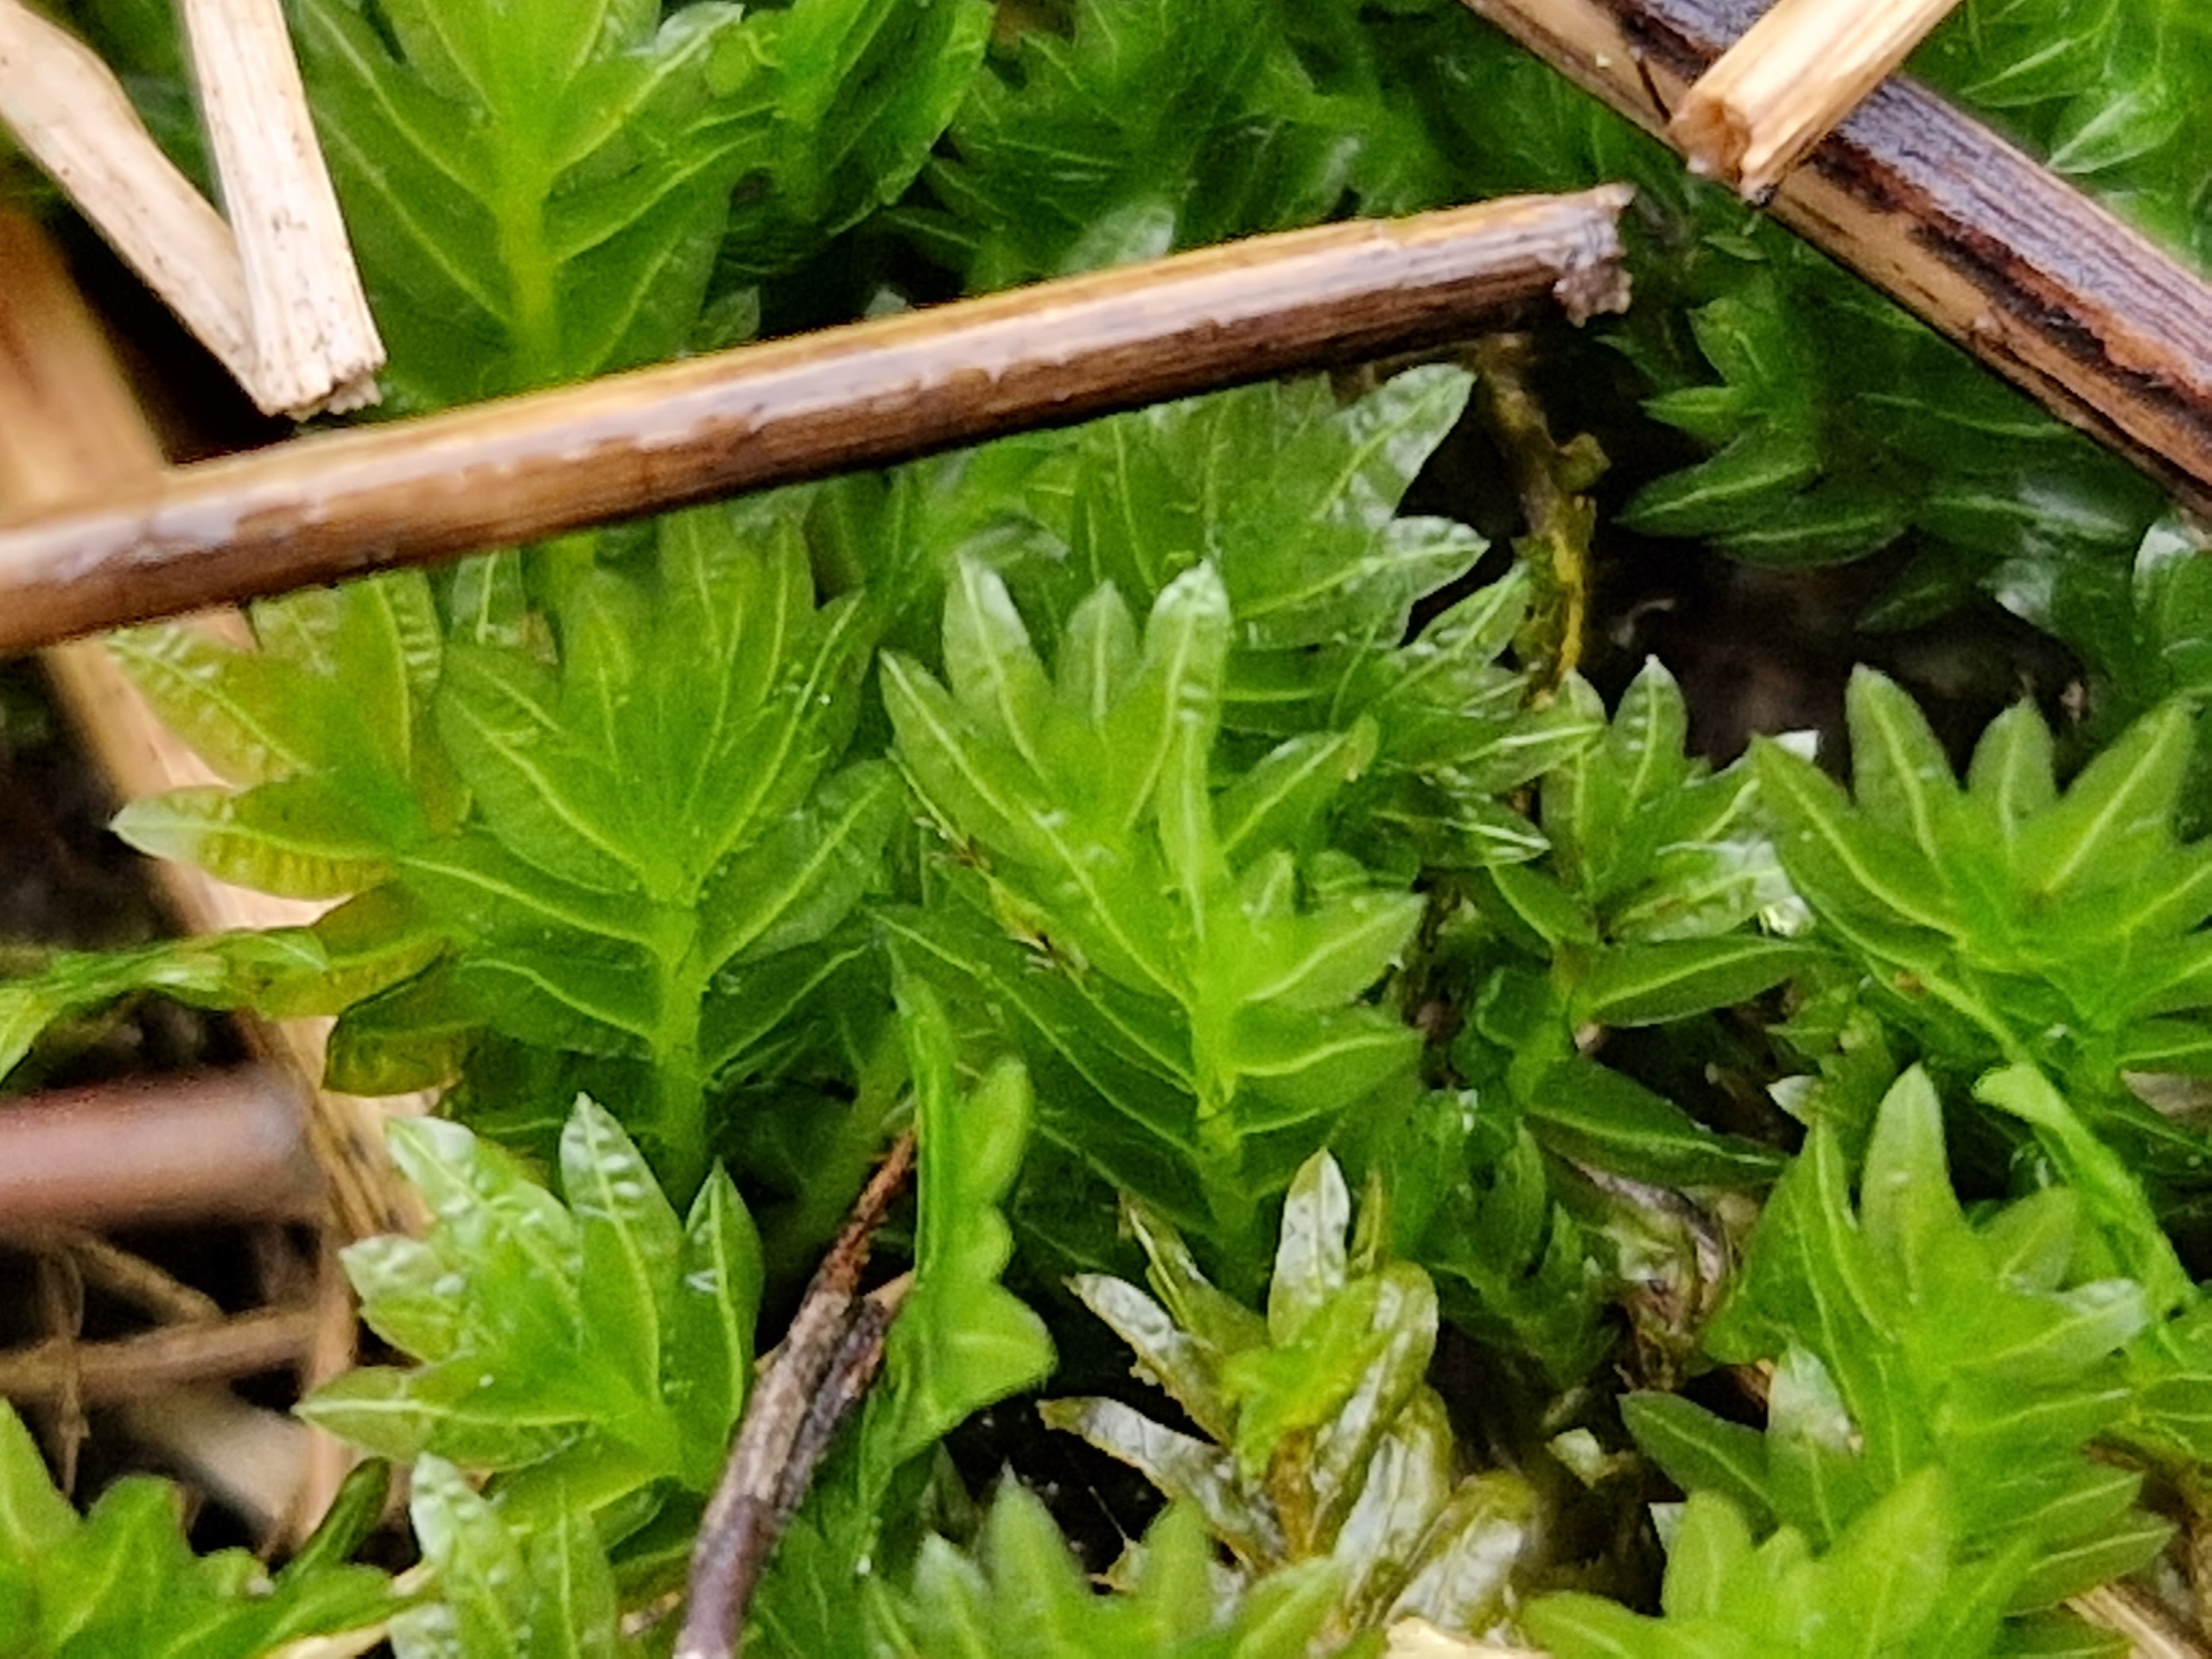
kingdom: Plantae
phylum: Bryophyta
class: Bryopsida
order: Dicranales
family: Fissidentaceae
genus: Fissidens
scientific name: Fissidens
